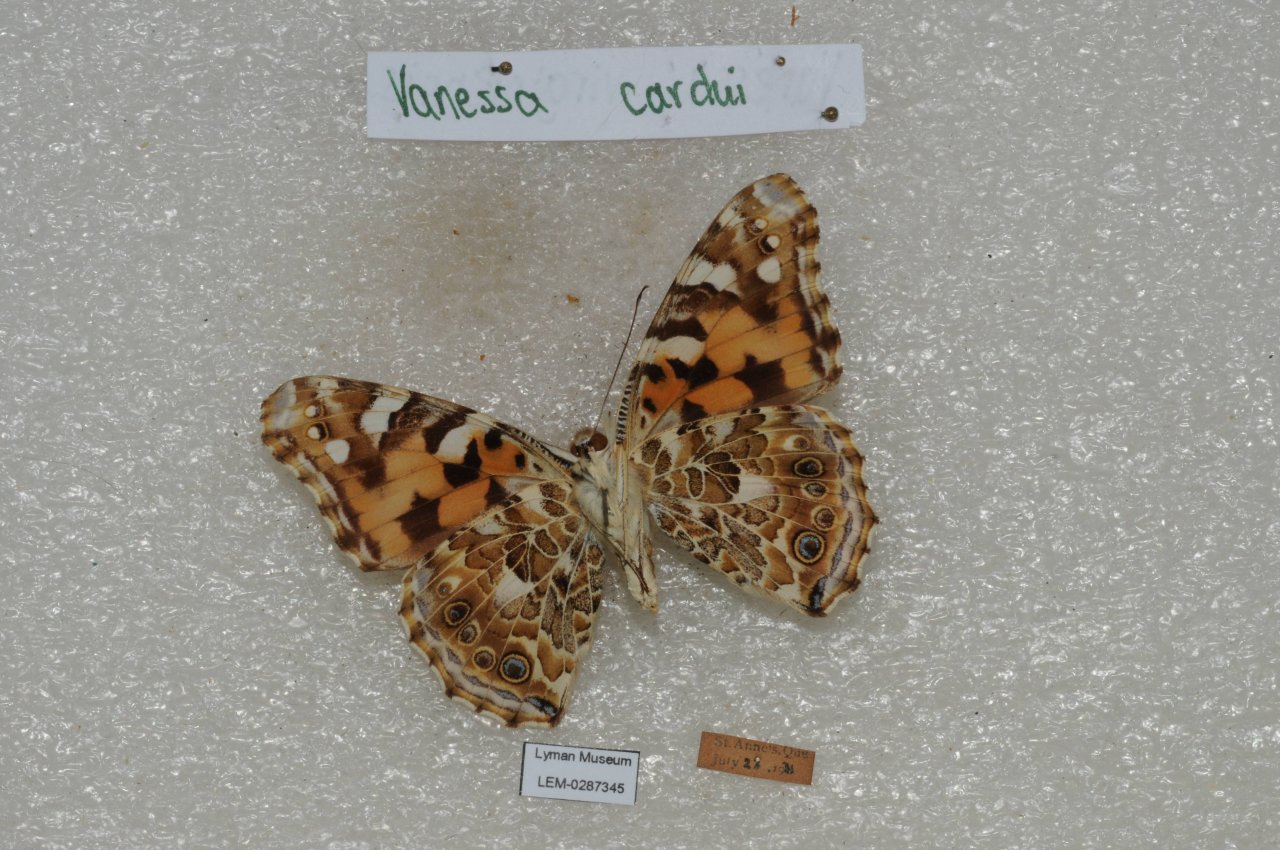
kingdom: Animalia
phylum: Arthropoda
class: Insecta
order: Lepidoptera
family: Nymphalidae
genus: Vanessa
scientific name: Vanessa cardui
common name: Painted Lady
